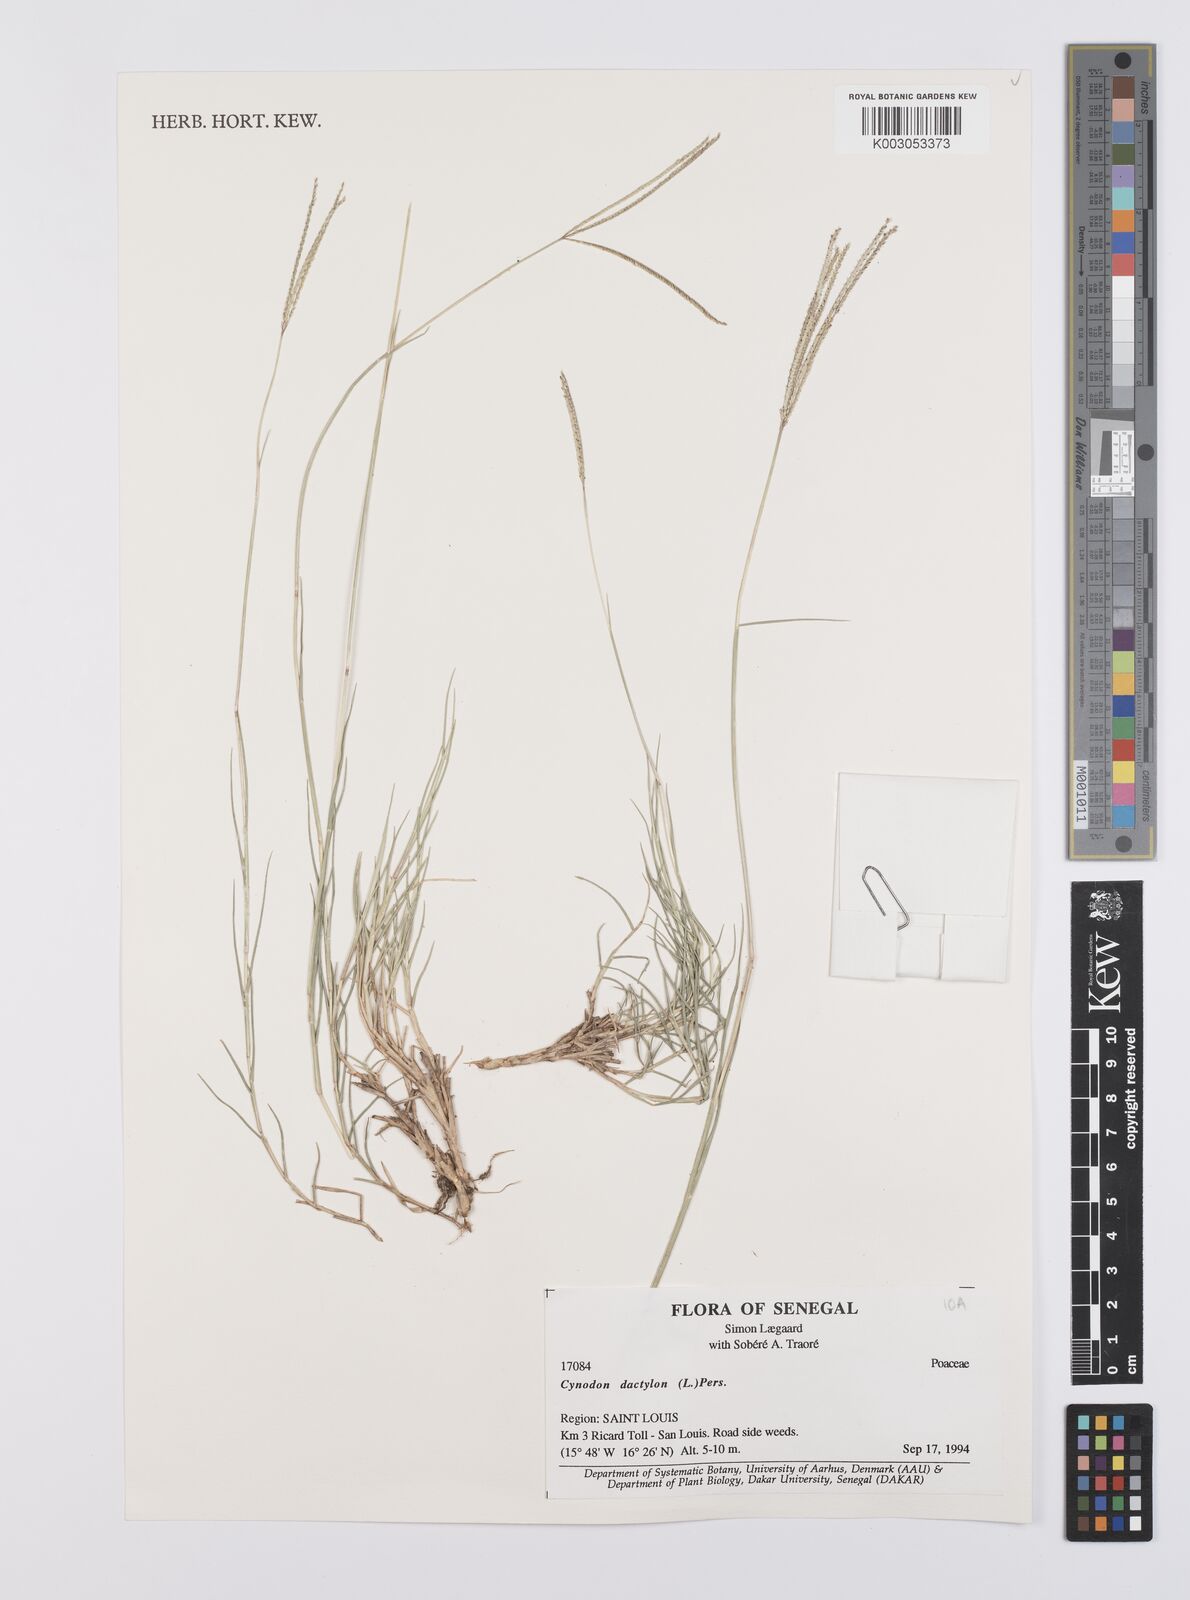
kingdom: Plantae
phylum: Tracheophyta
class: Liliopsida
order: Poales
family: Poaceae
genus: Cynodon
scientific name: Cynodon dactylon
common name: Bermuda grass
